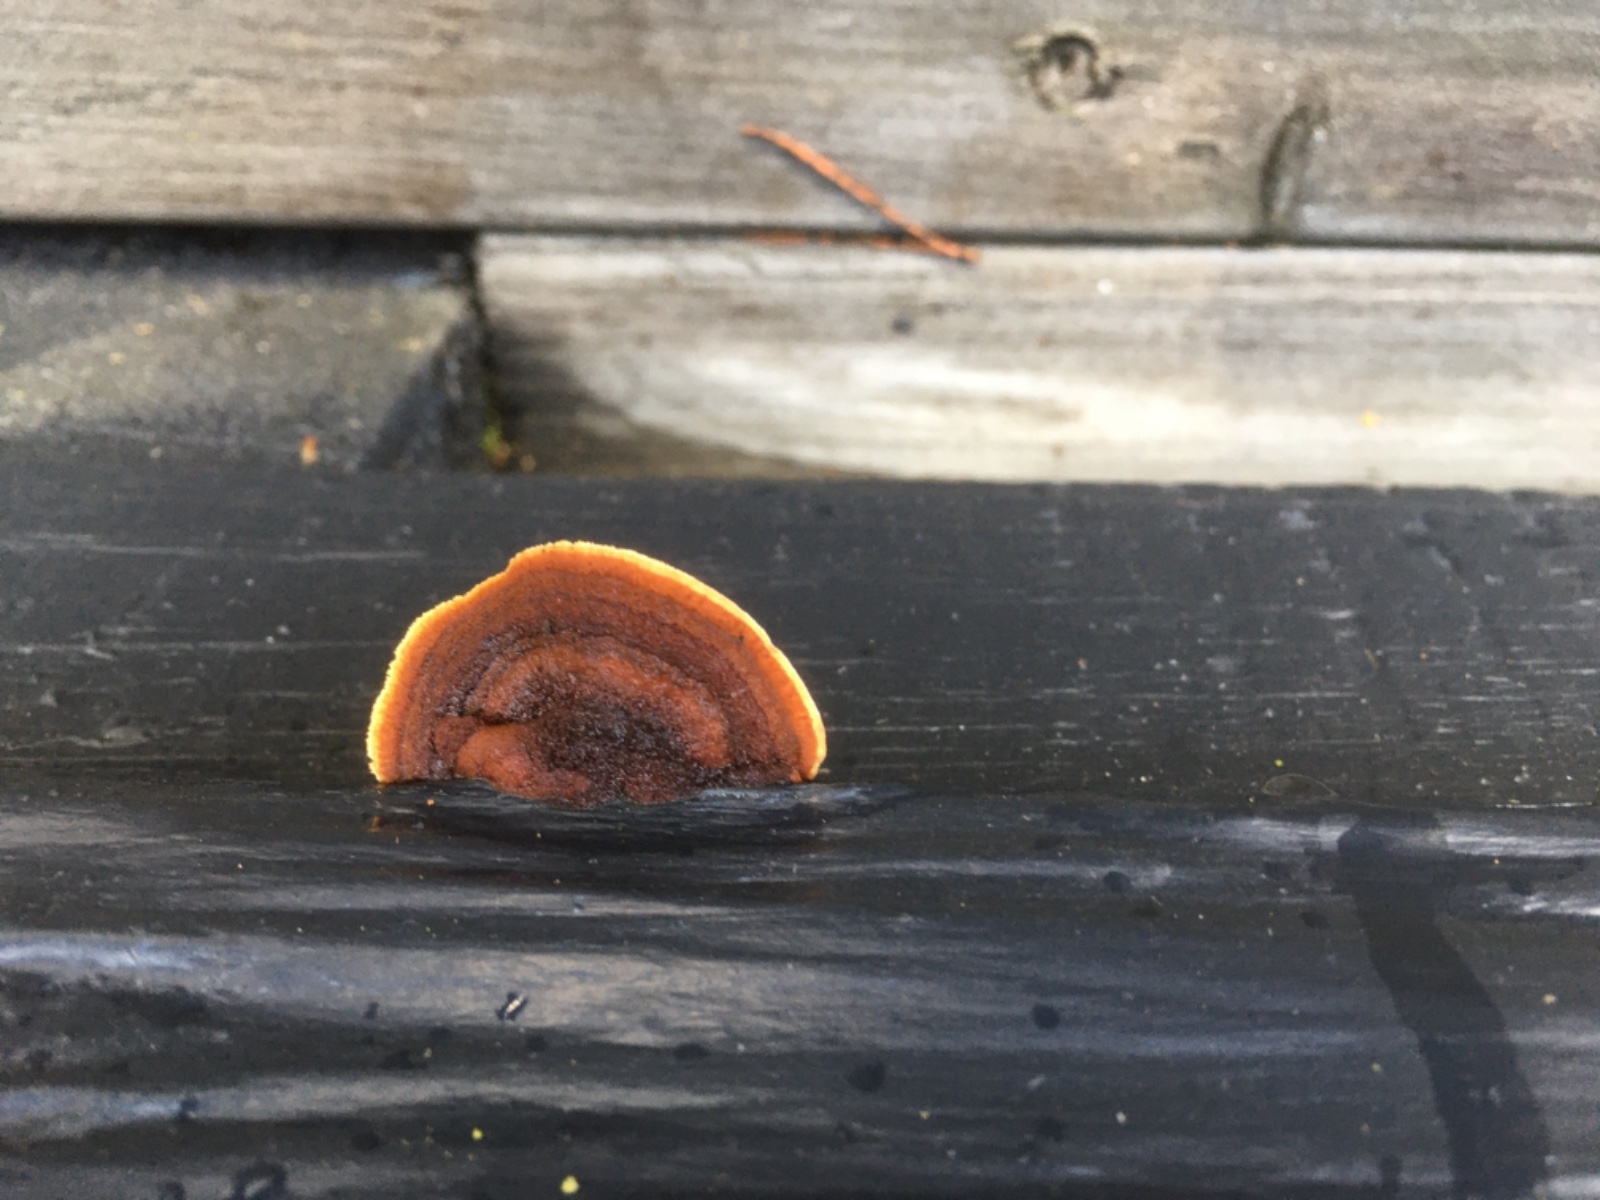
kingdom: Fungi
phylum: Basidiomycota
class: Agaricomycetes
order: Gloeophyllales
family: Gloeophyllaceae
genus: Gloeophyllum
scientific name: Gloeophyllum sepiarium
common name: fyrre-korkhat
